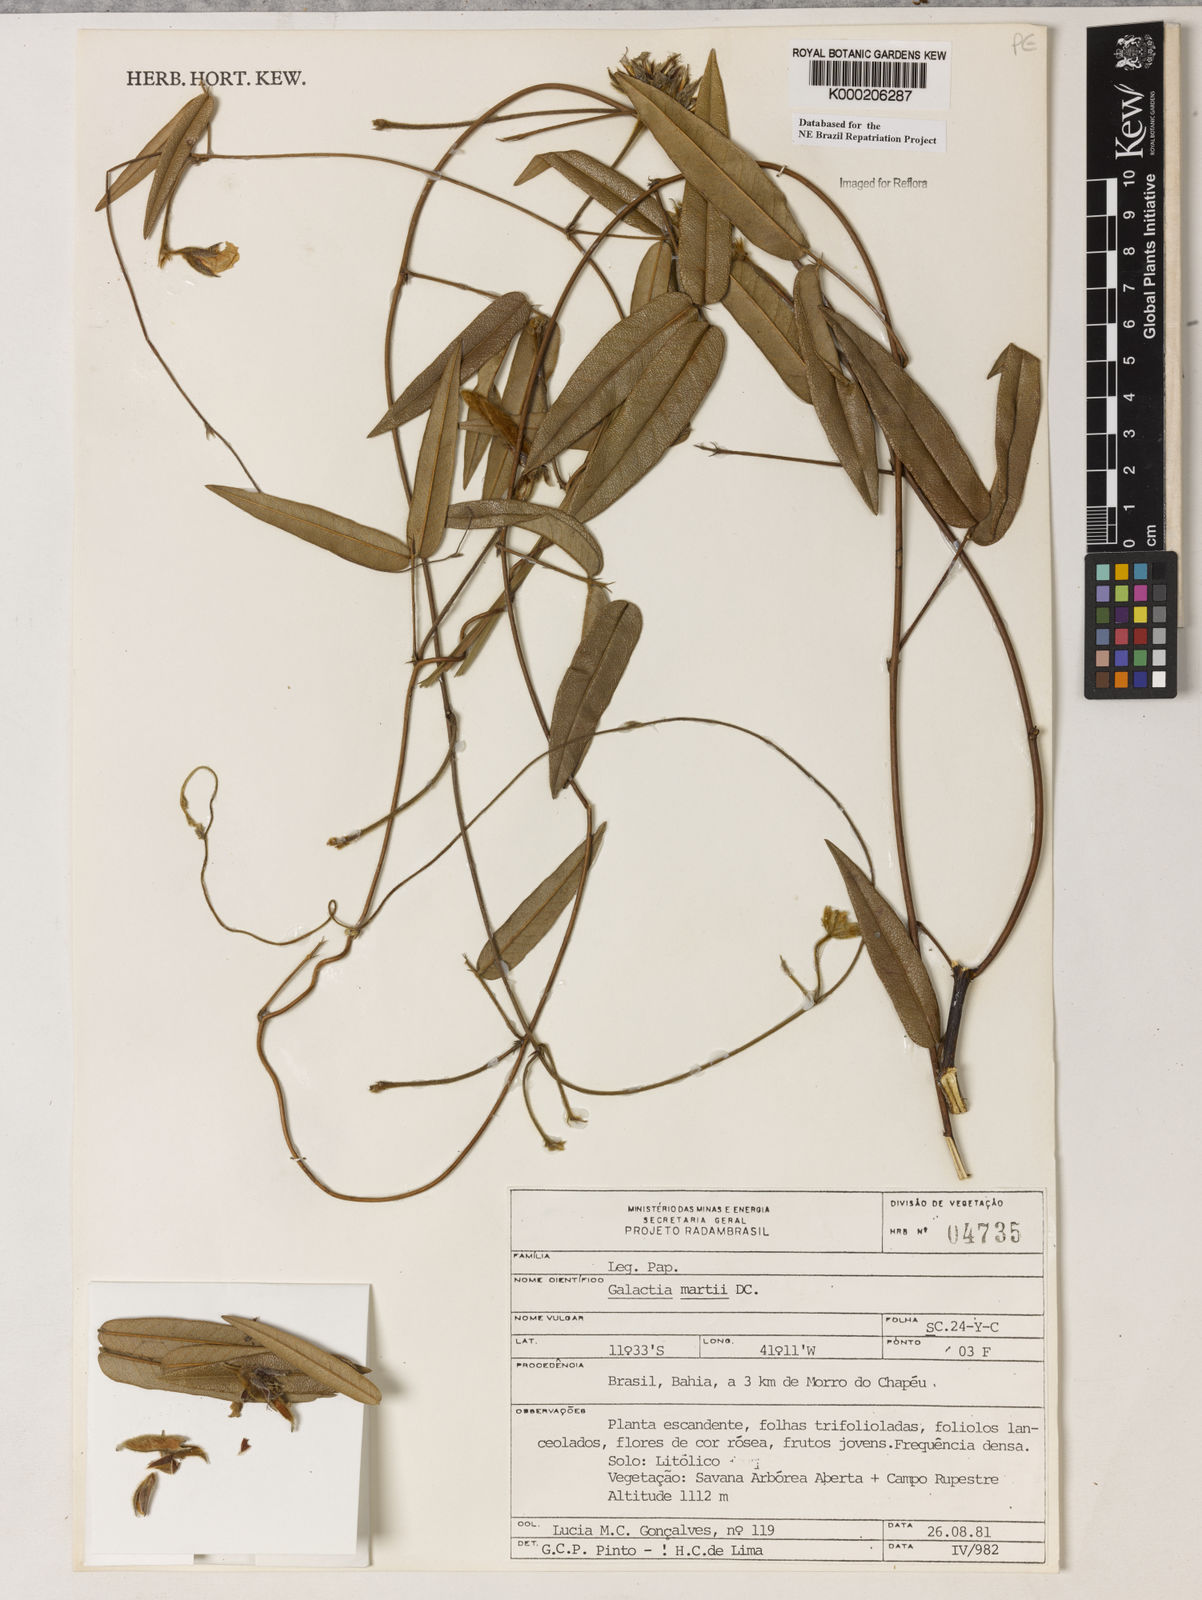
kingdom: Plantae
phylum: Tracheophyta
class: Magnoliopsida
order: Fabales
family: Fabaceae
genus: Betencourtia
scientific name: Betencourtia martii
